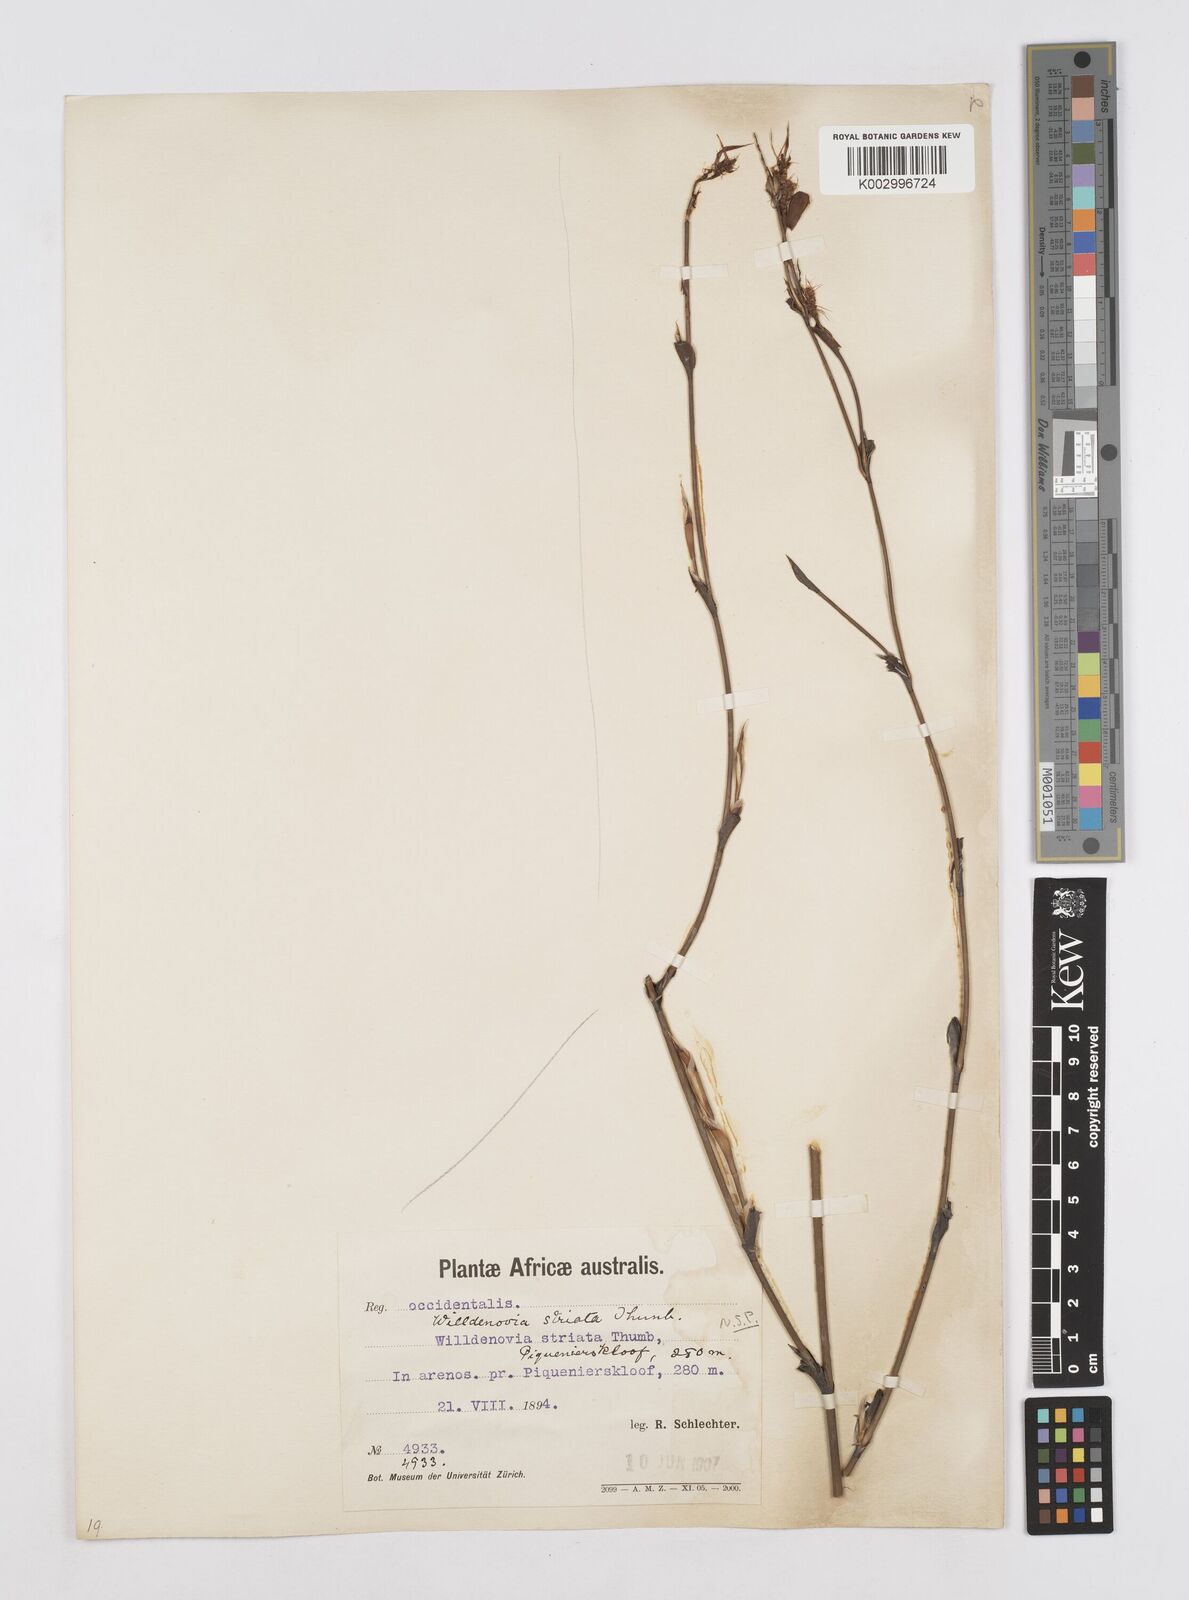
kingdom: Plantae
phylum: Tracheophyta
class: Liliopsida
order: Poales
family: Restionaceae
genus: Willdenowia
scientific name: Willdenowia incurvata
